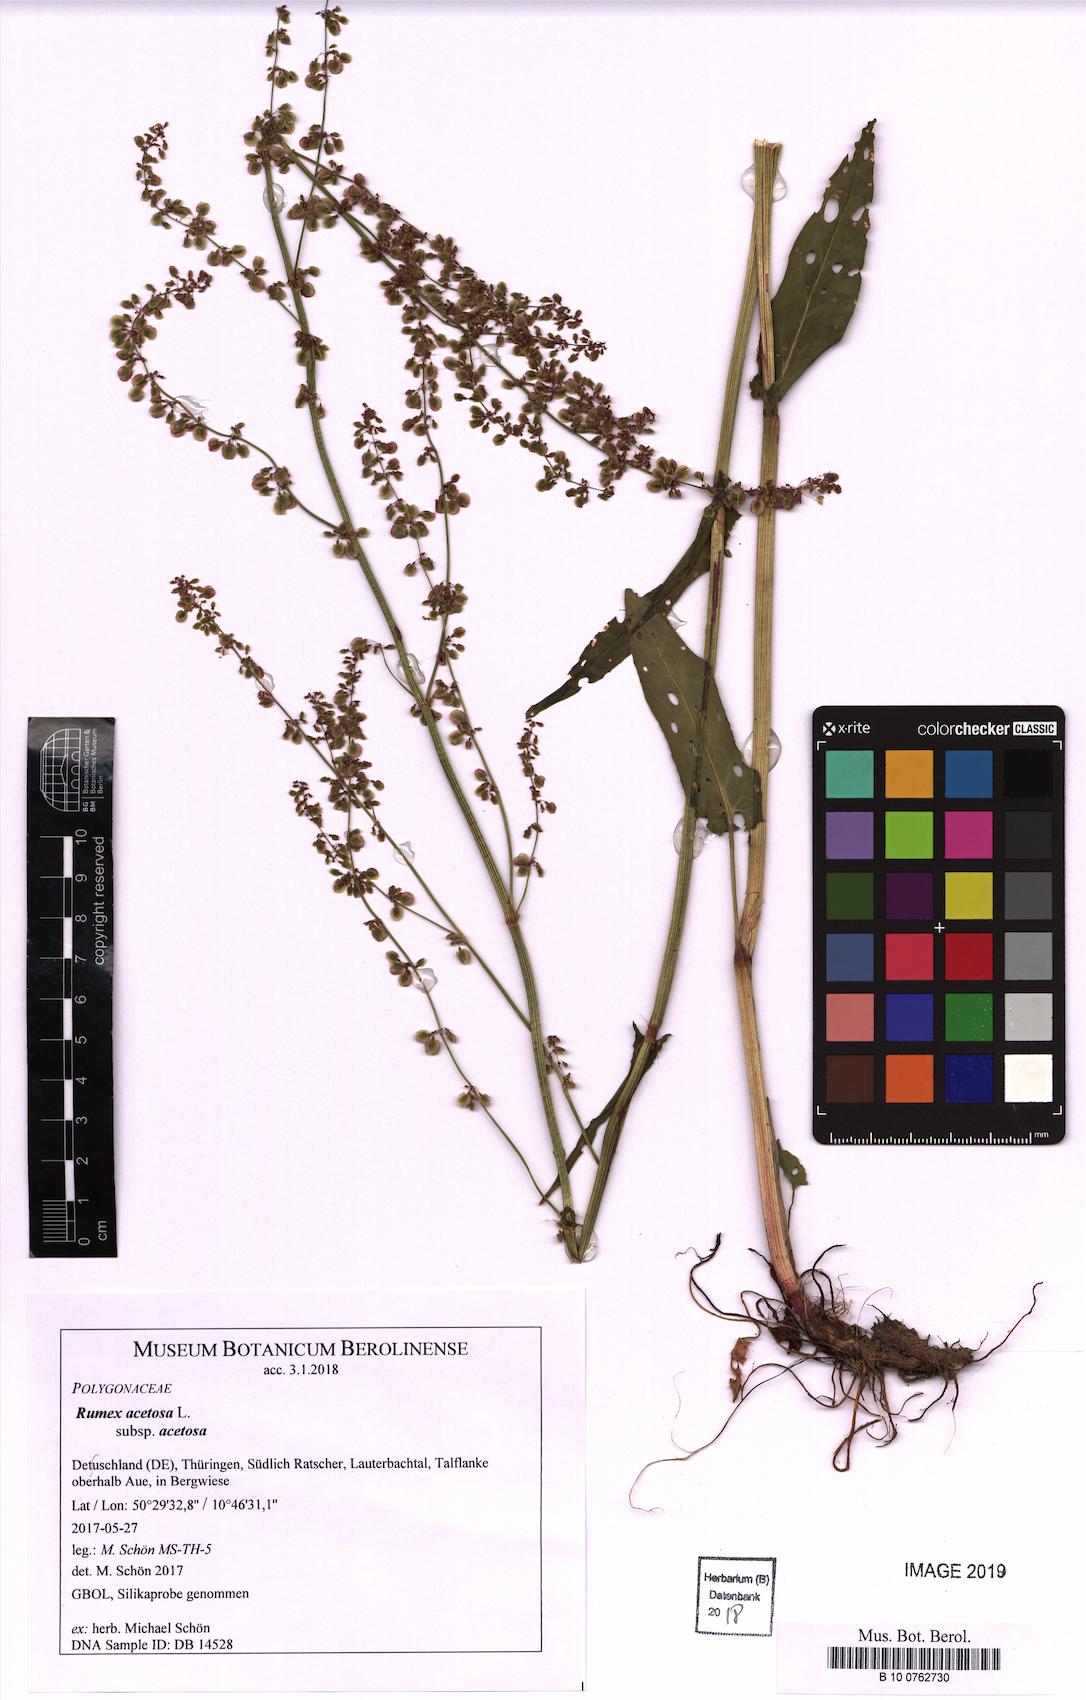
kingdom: Plantae
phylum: Tracheophyta
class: Magnoliopsida
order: Caryophyllales
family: Polygonaceae
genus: Rumex
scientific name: Rumex acetosa
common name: Garden sorrel
